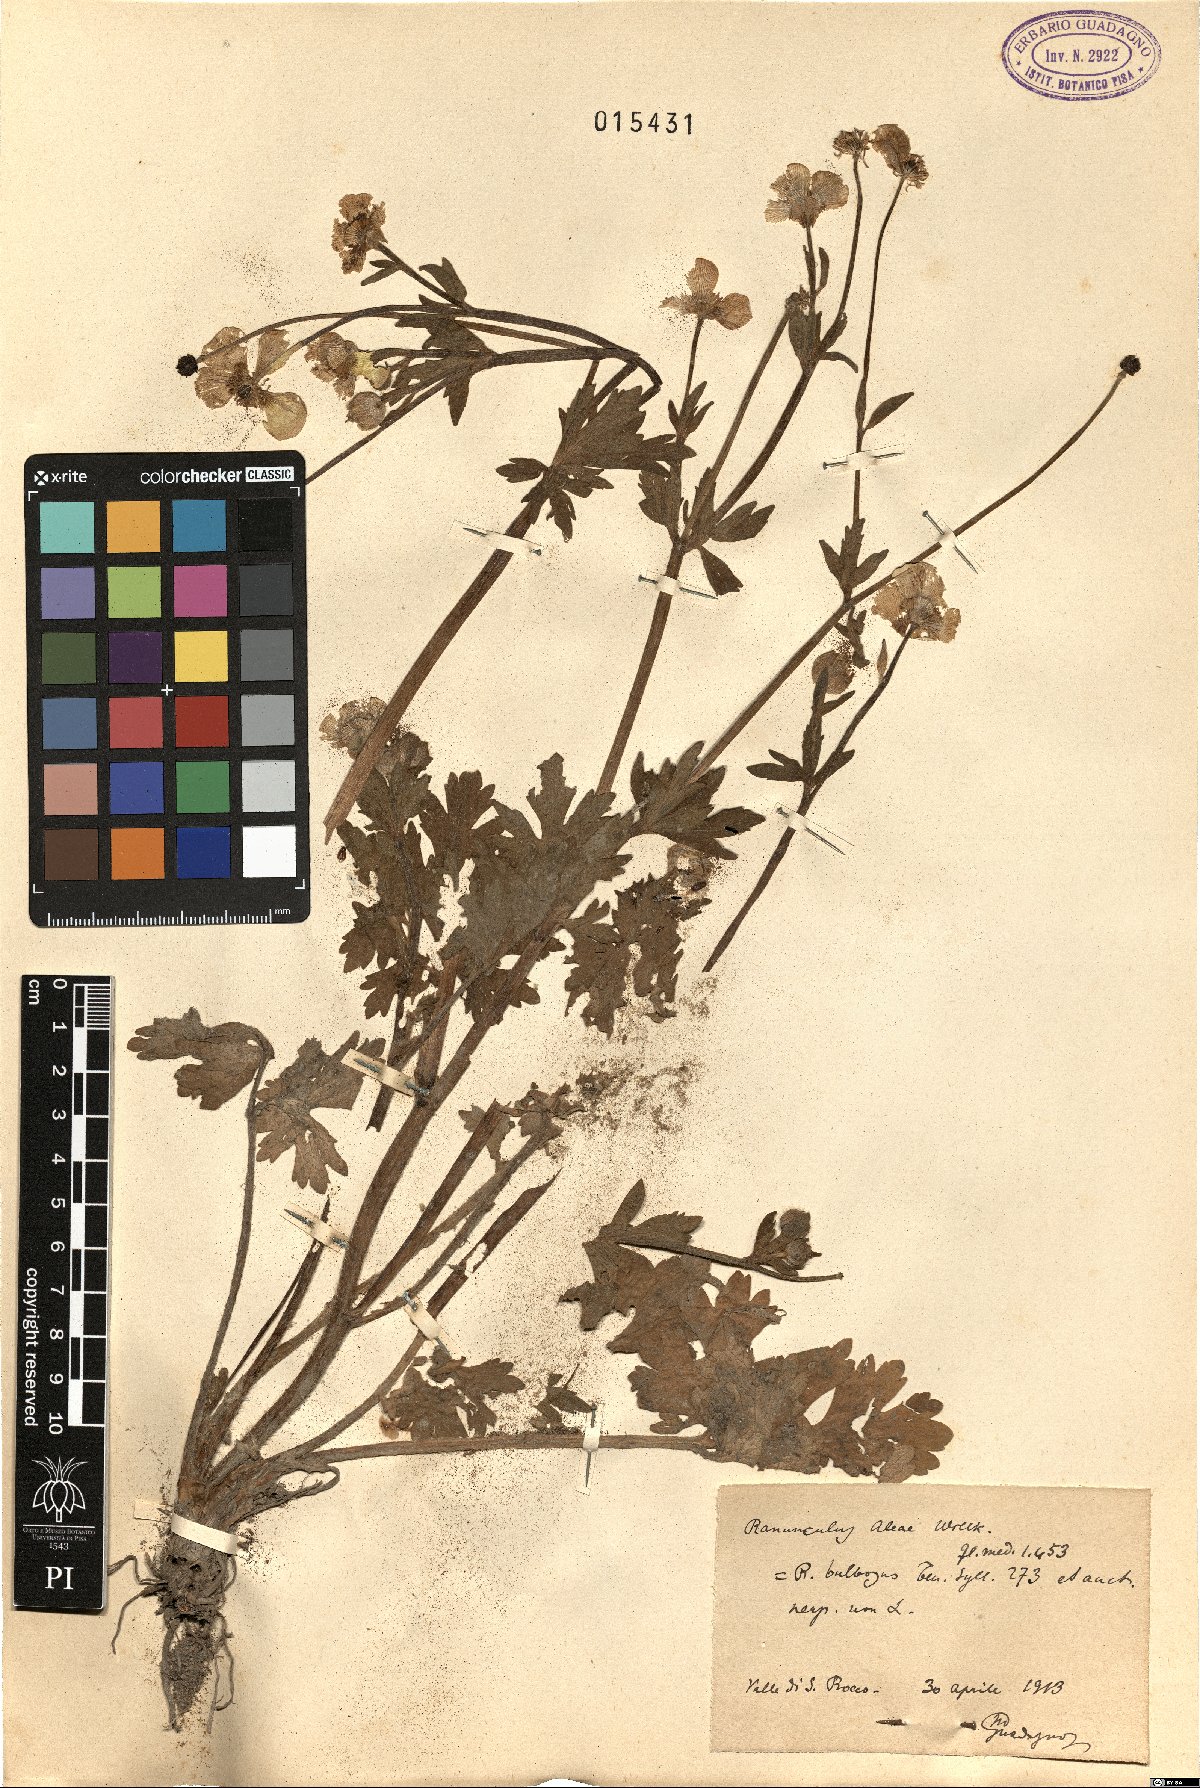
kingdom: Plantae
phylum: Tracheophyta
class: Magnoliopsida
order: Ranunculales
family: Ranunculaceae
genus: Ranunculus
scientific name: Ranunculus neapolitanus
